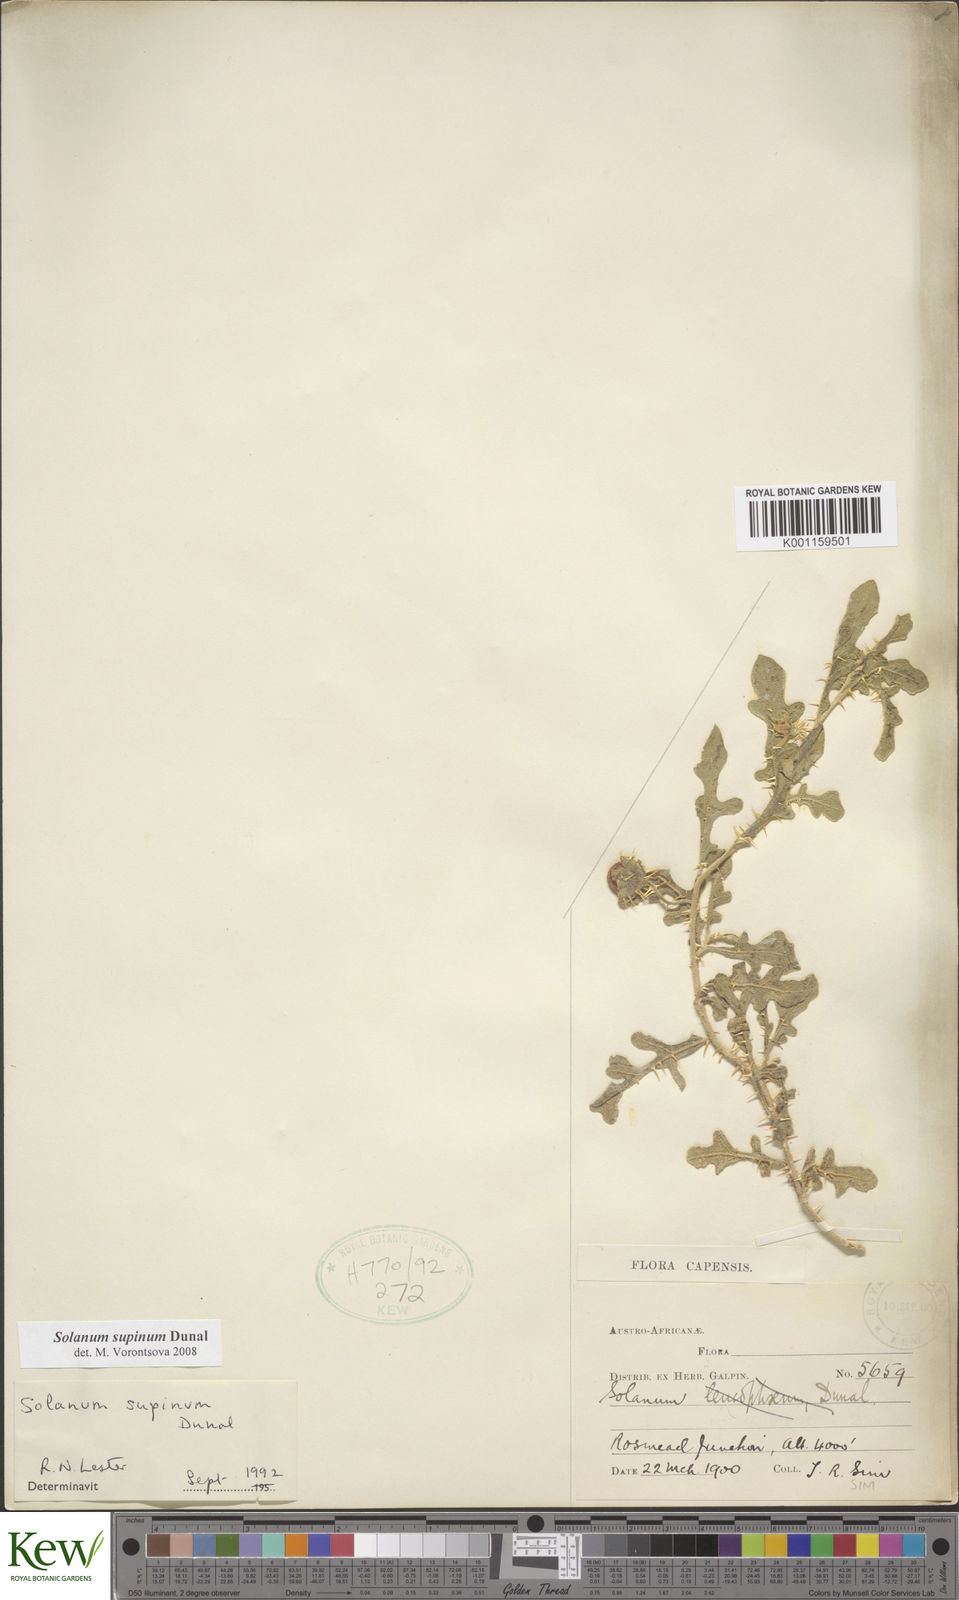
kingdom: Plantae
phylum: Tracheophyta
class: Magnoliopsida
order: Solanales
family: Solanaceae
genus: Solanum
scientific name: Solanum supinum
